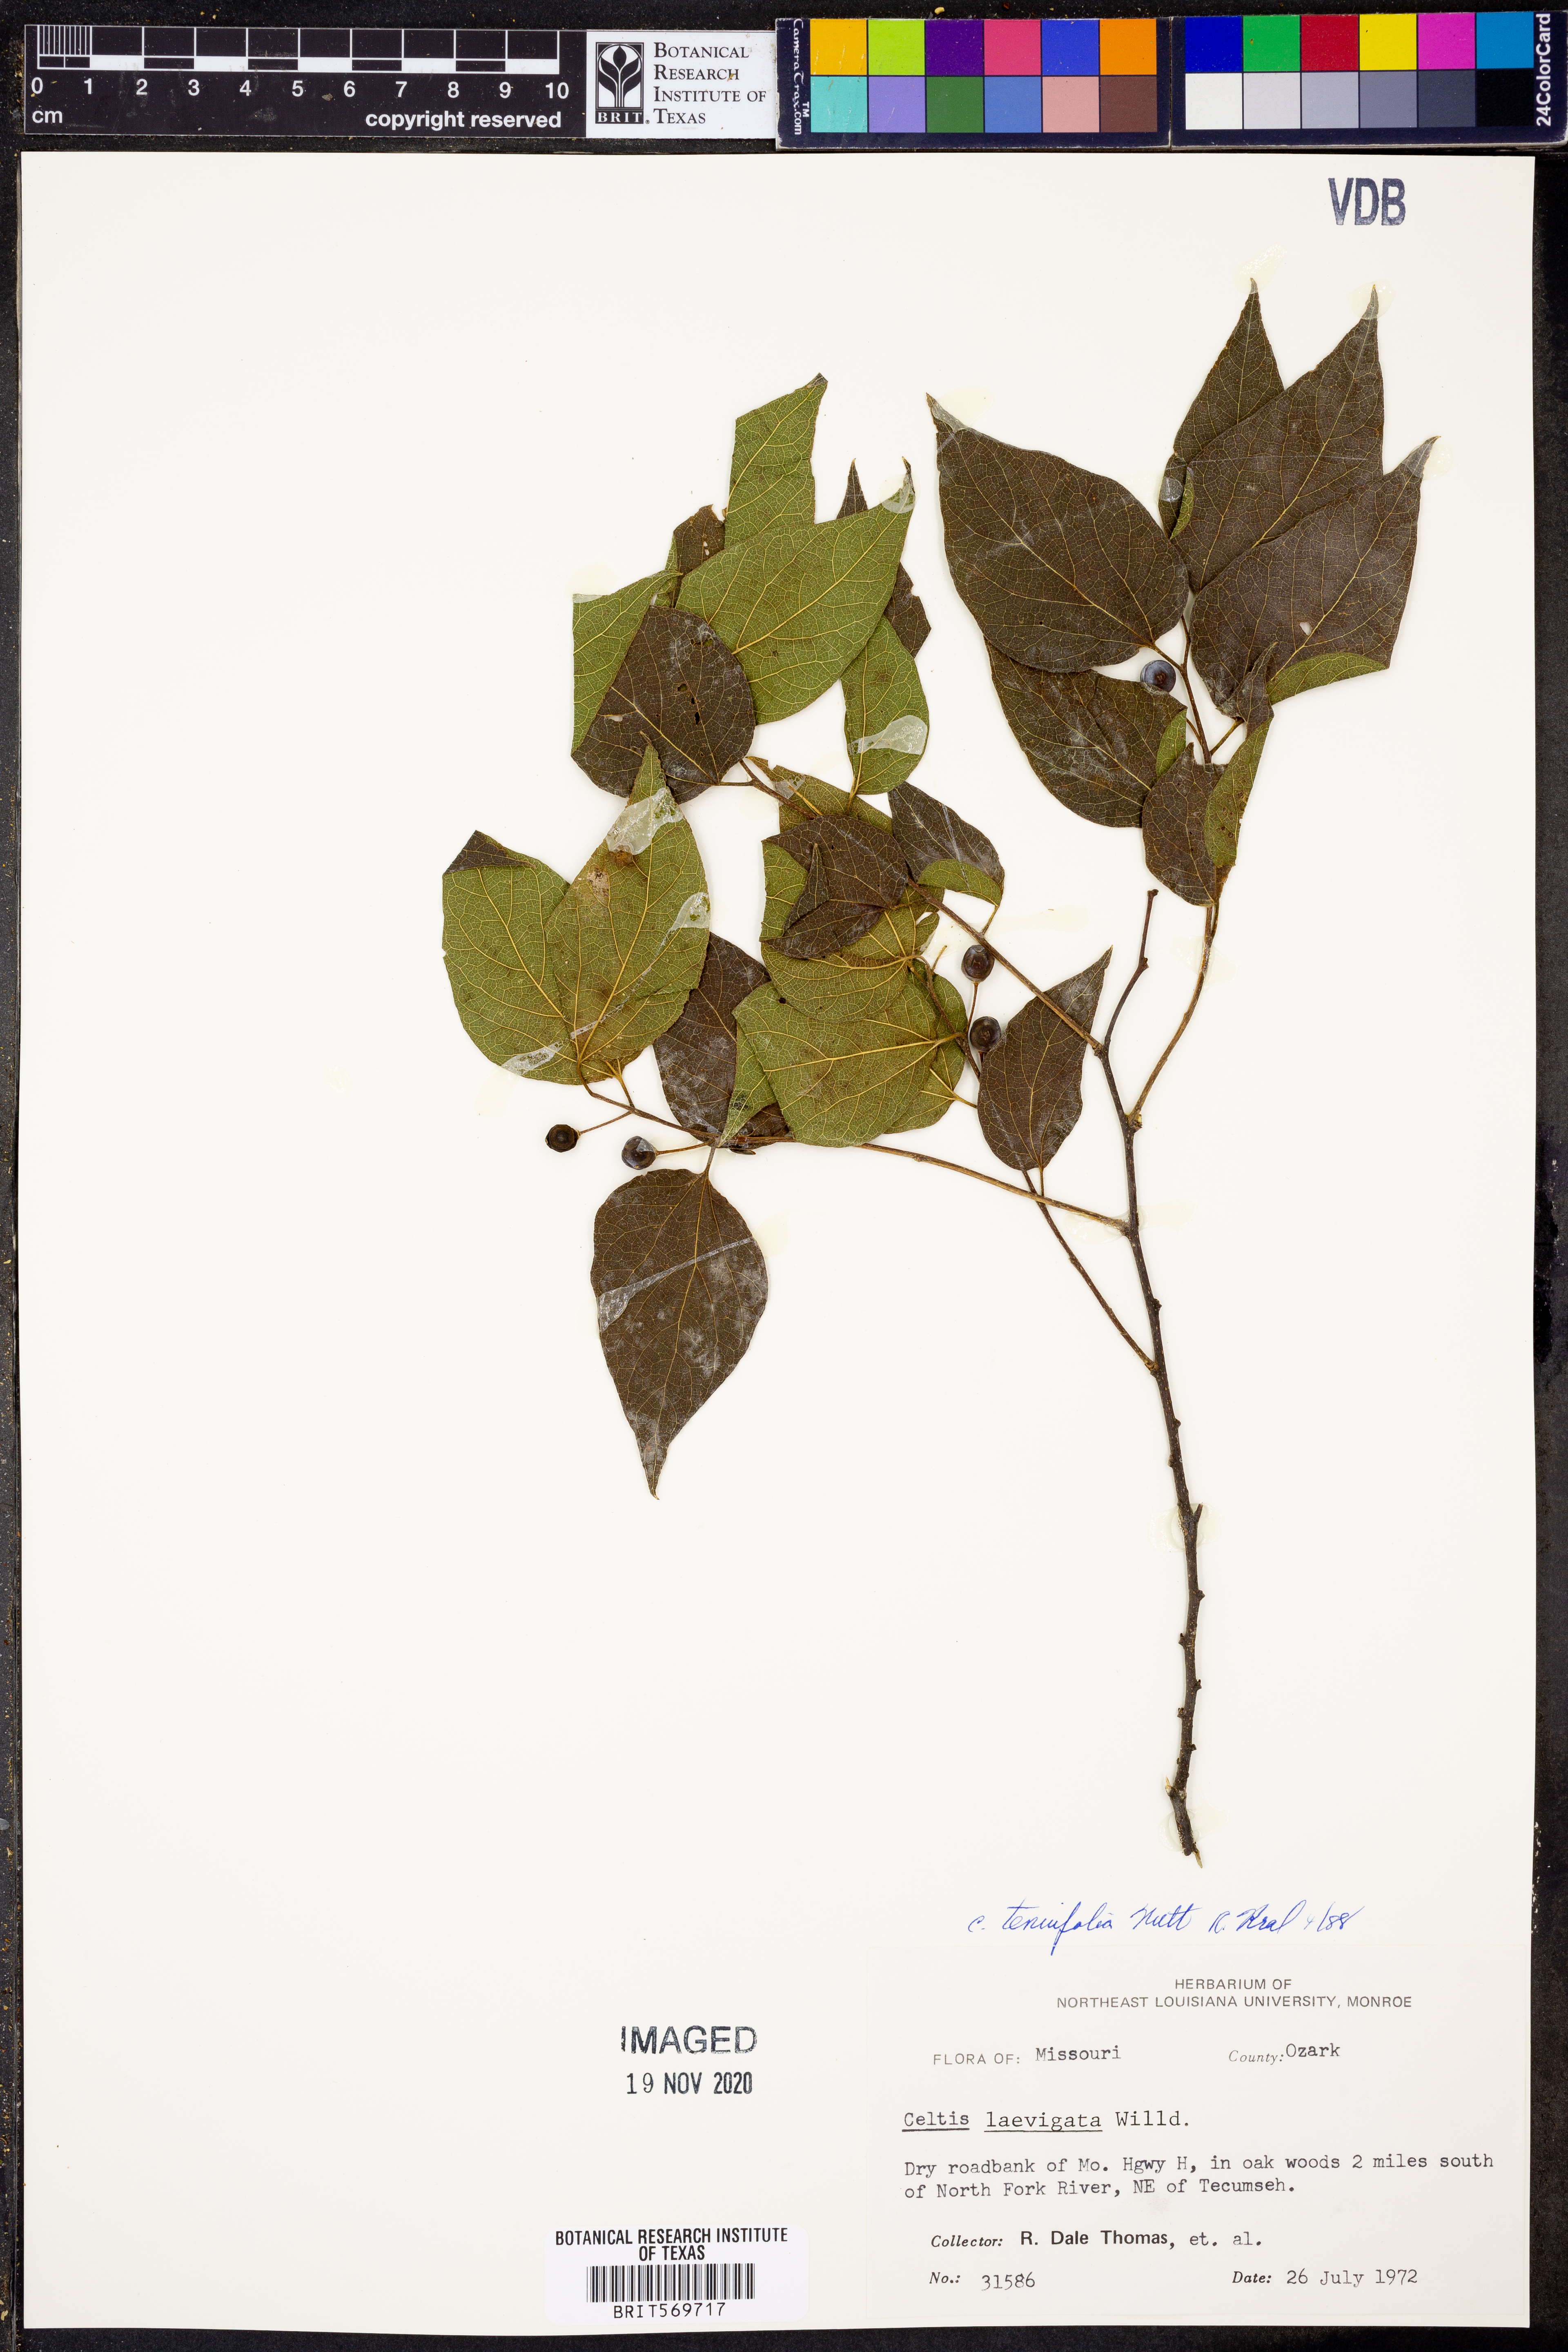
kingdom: Plantae
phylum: Tracheophyta
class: Magnoliopsida
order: Rosales
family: Cannabaceae
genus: Celtis
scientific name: Celtis tenuifolia
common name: Georgia hackberry
